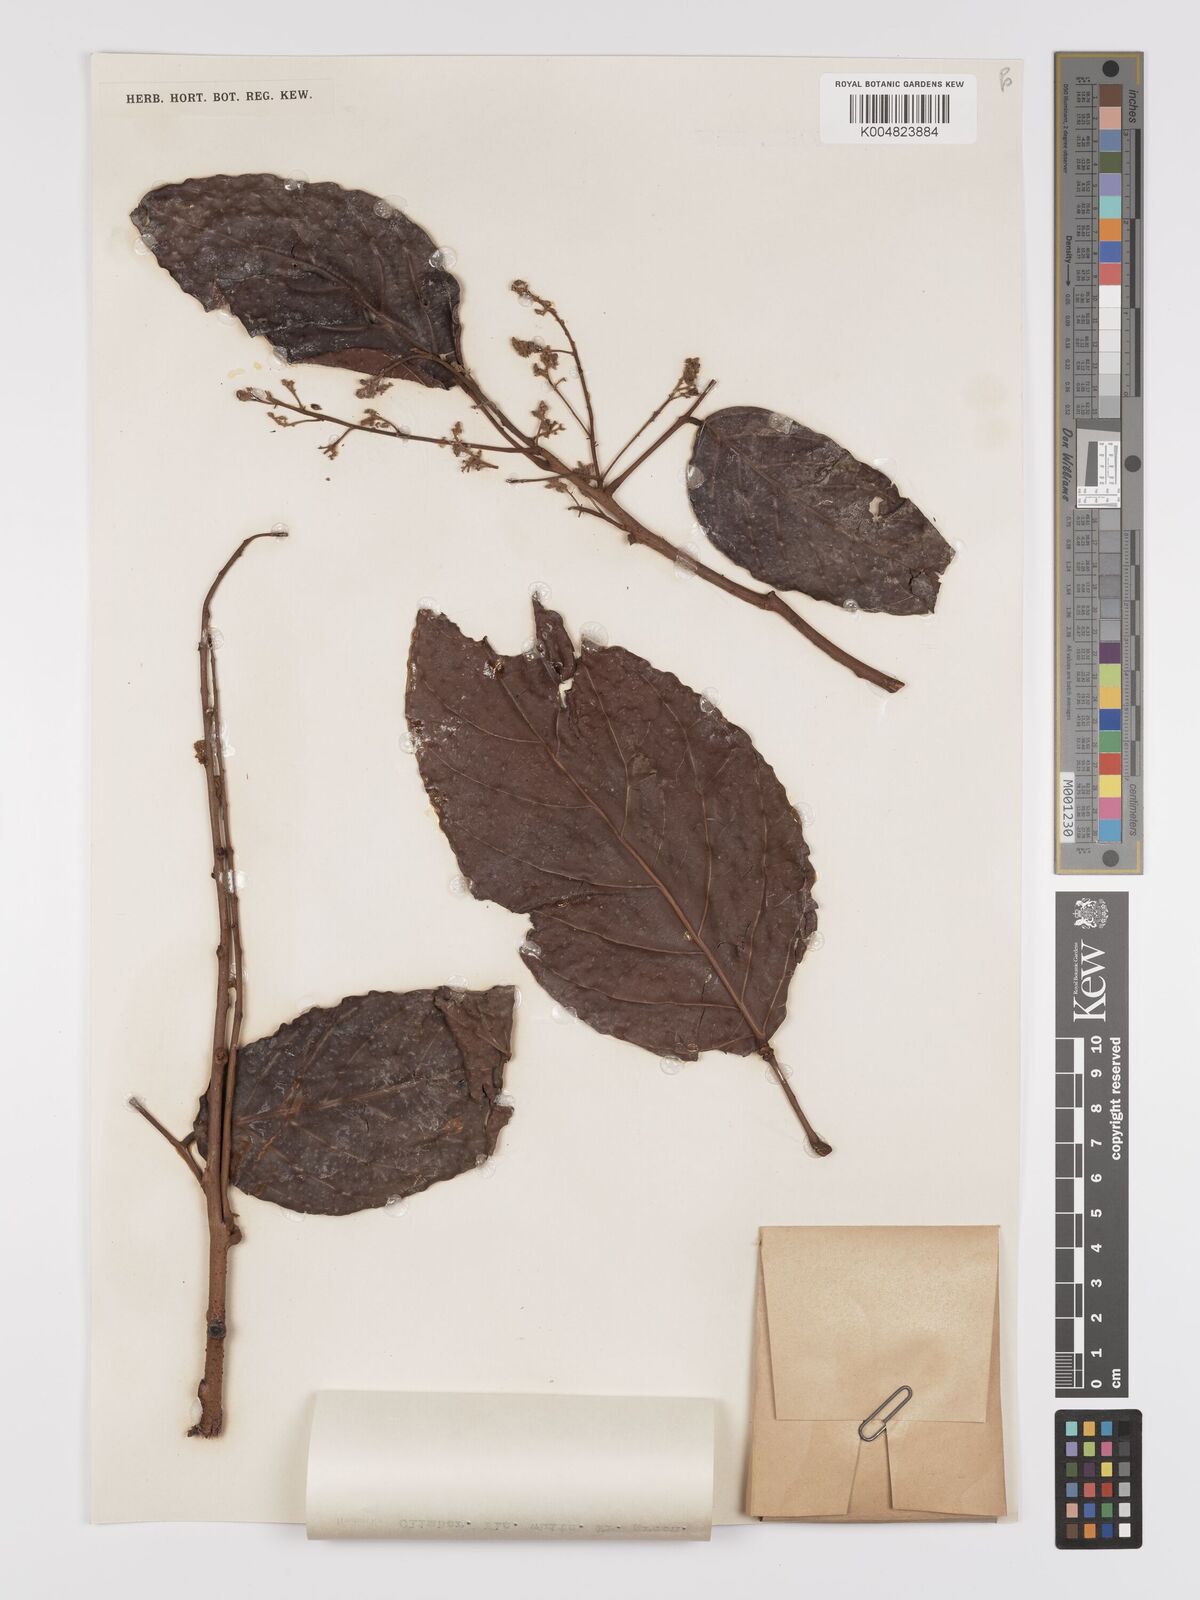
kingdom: Plantae
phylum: Tracheophyta
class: Magnoliopsida
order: Oxalidales
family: Connaraceae
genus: Connarus
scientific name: Connarus grandis
